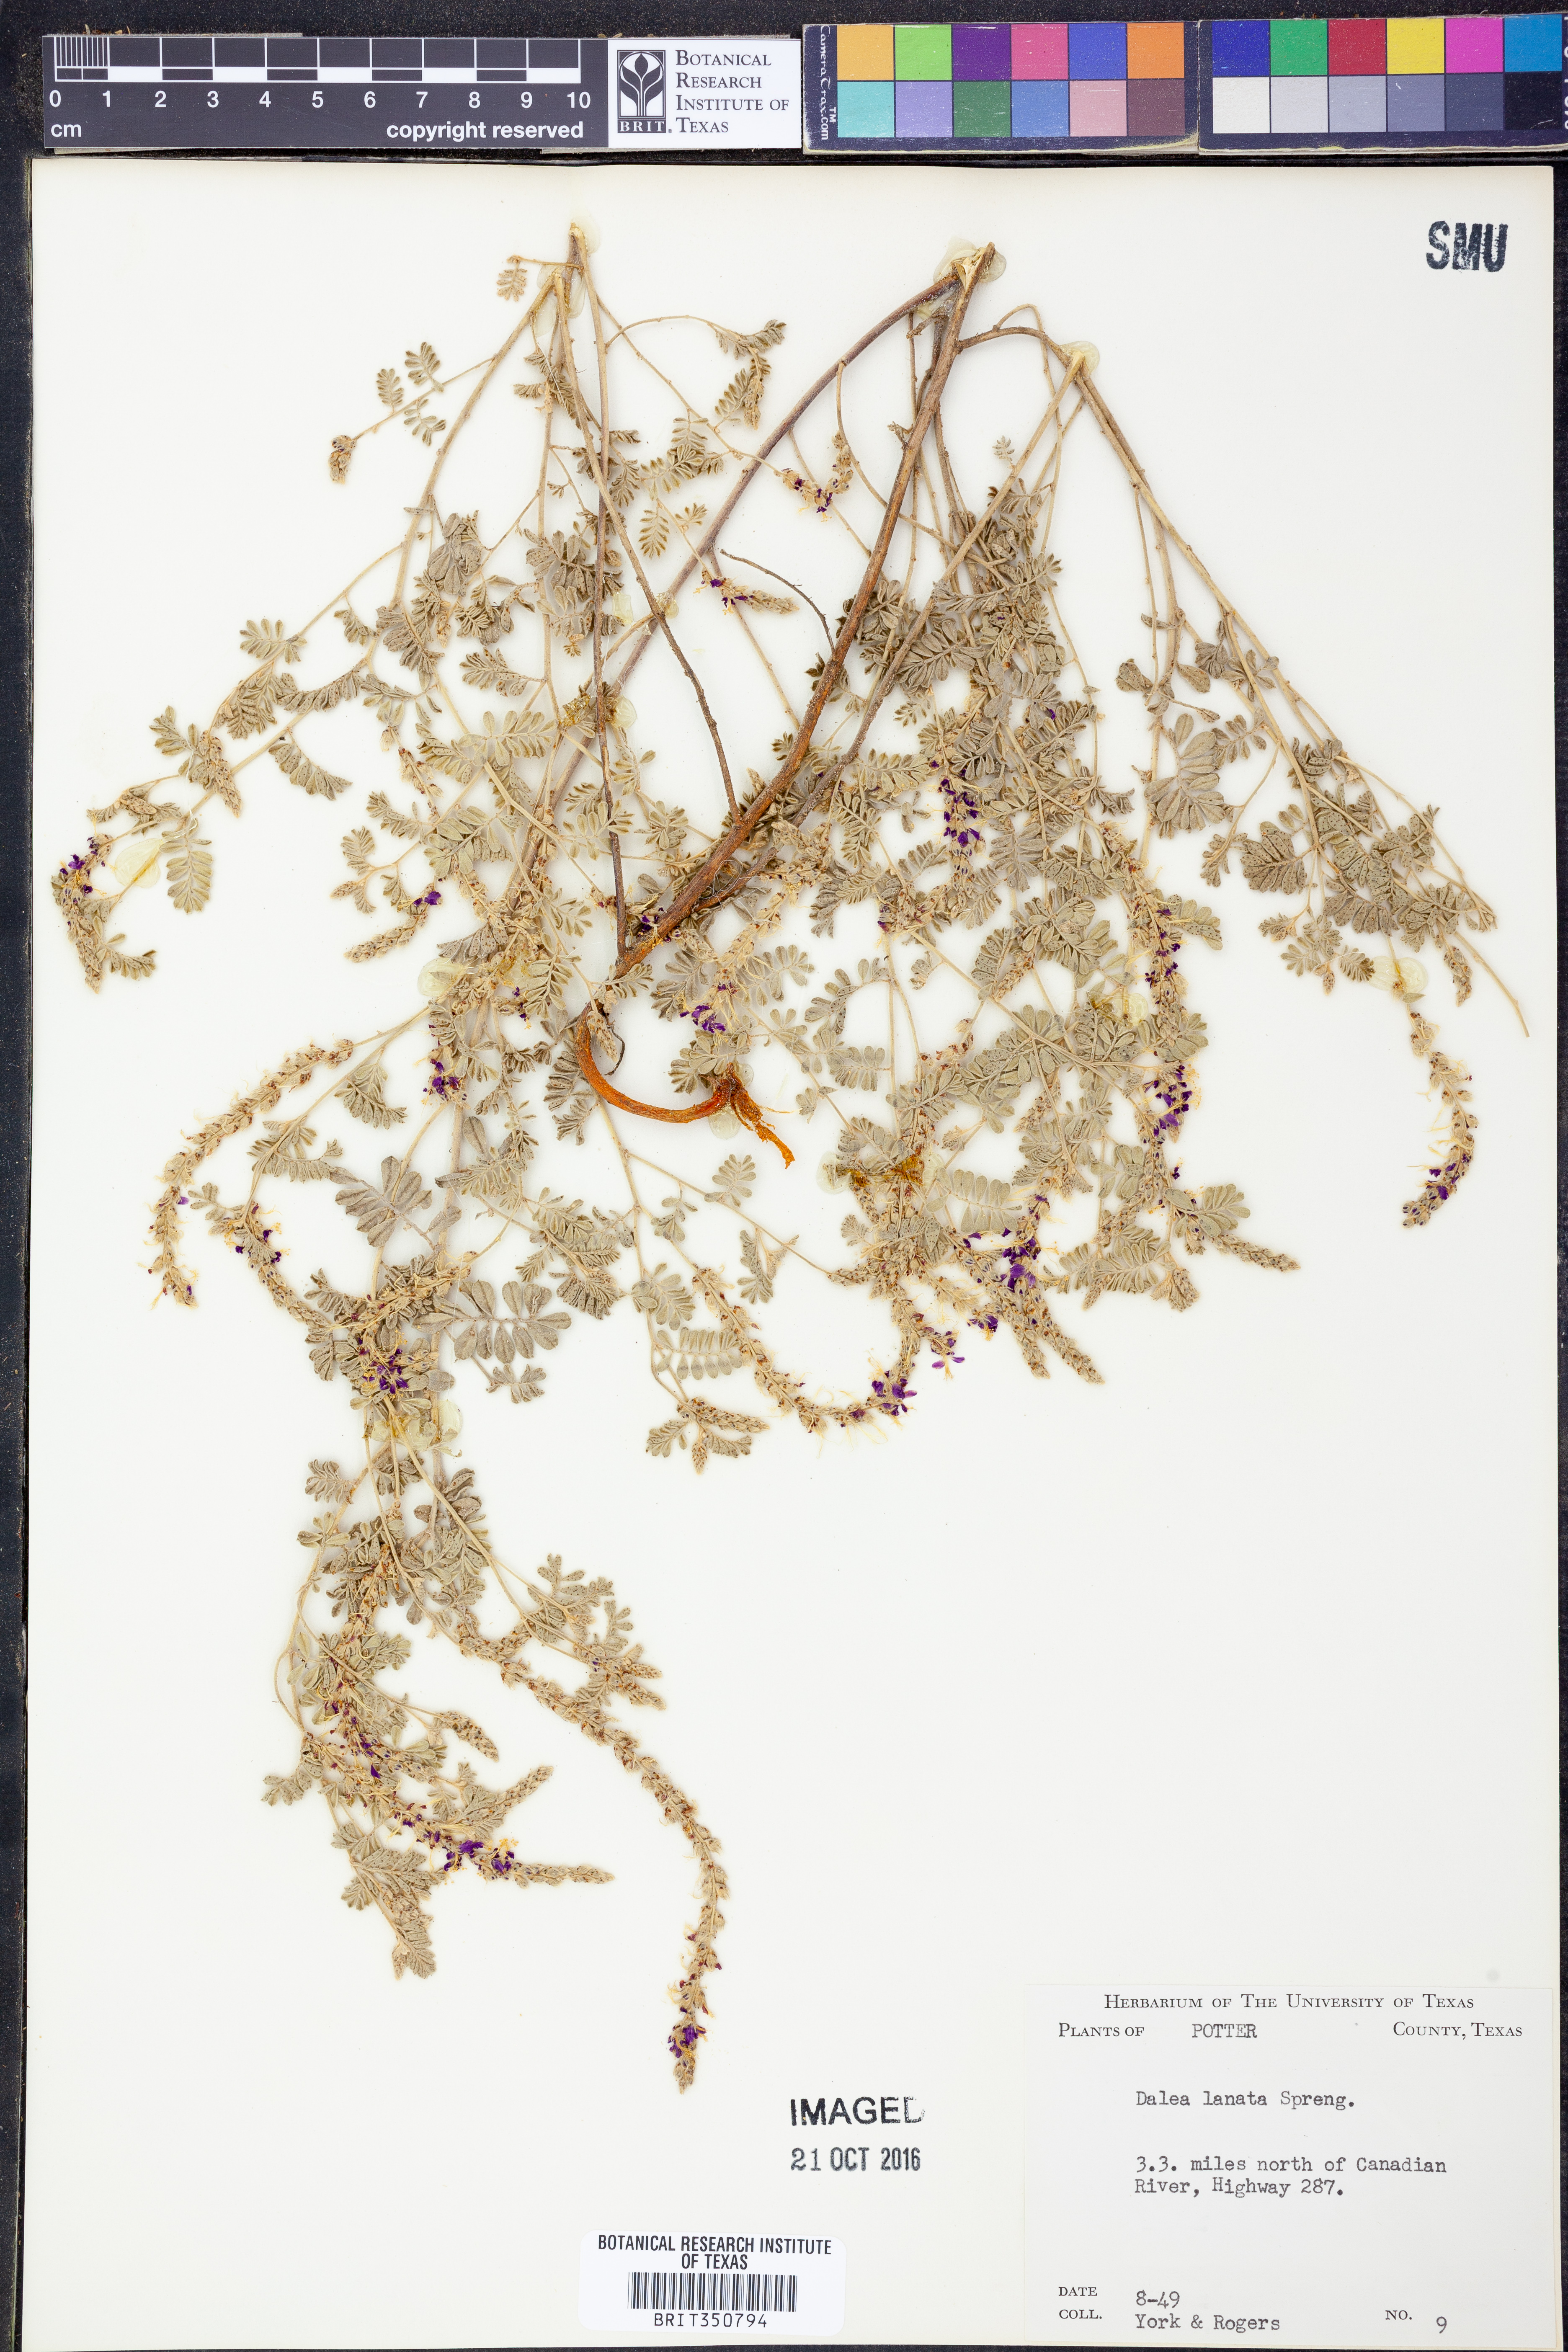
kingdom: Plantae
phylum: Tracheophyta
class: Magnoliopsida
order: Fabales
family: Fabaceae
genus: Dalea
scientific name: Dalea lanata
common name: Woolly dalea
